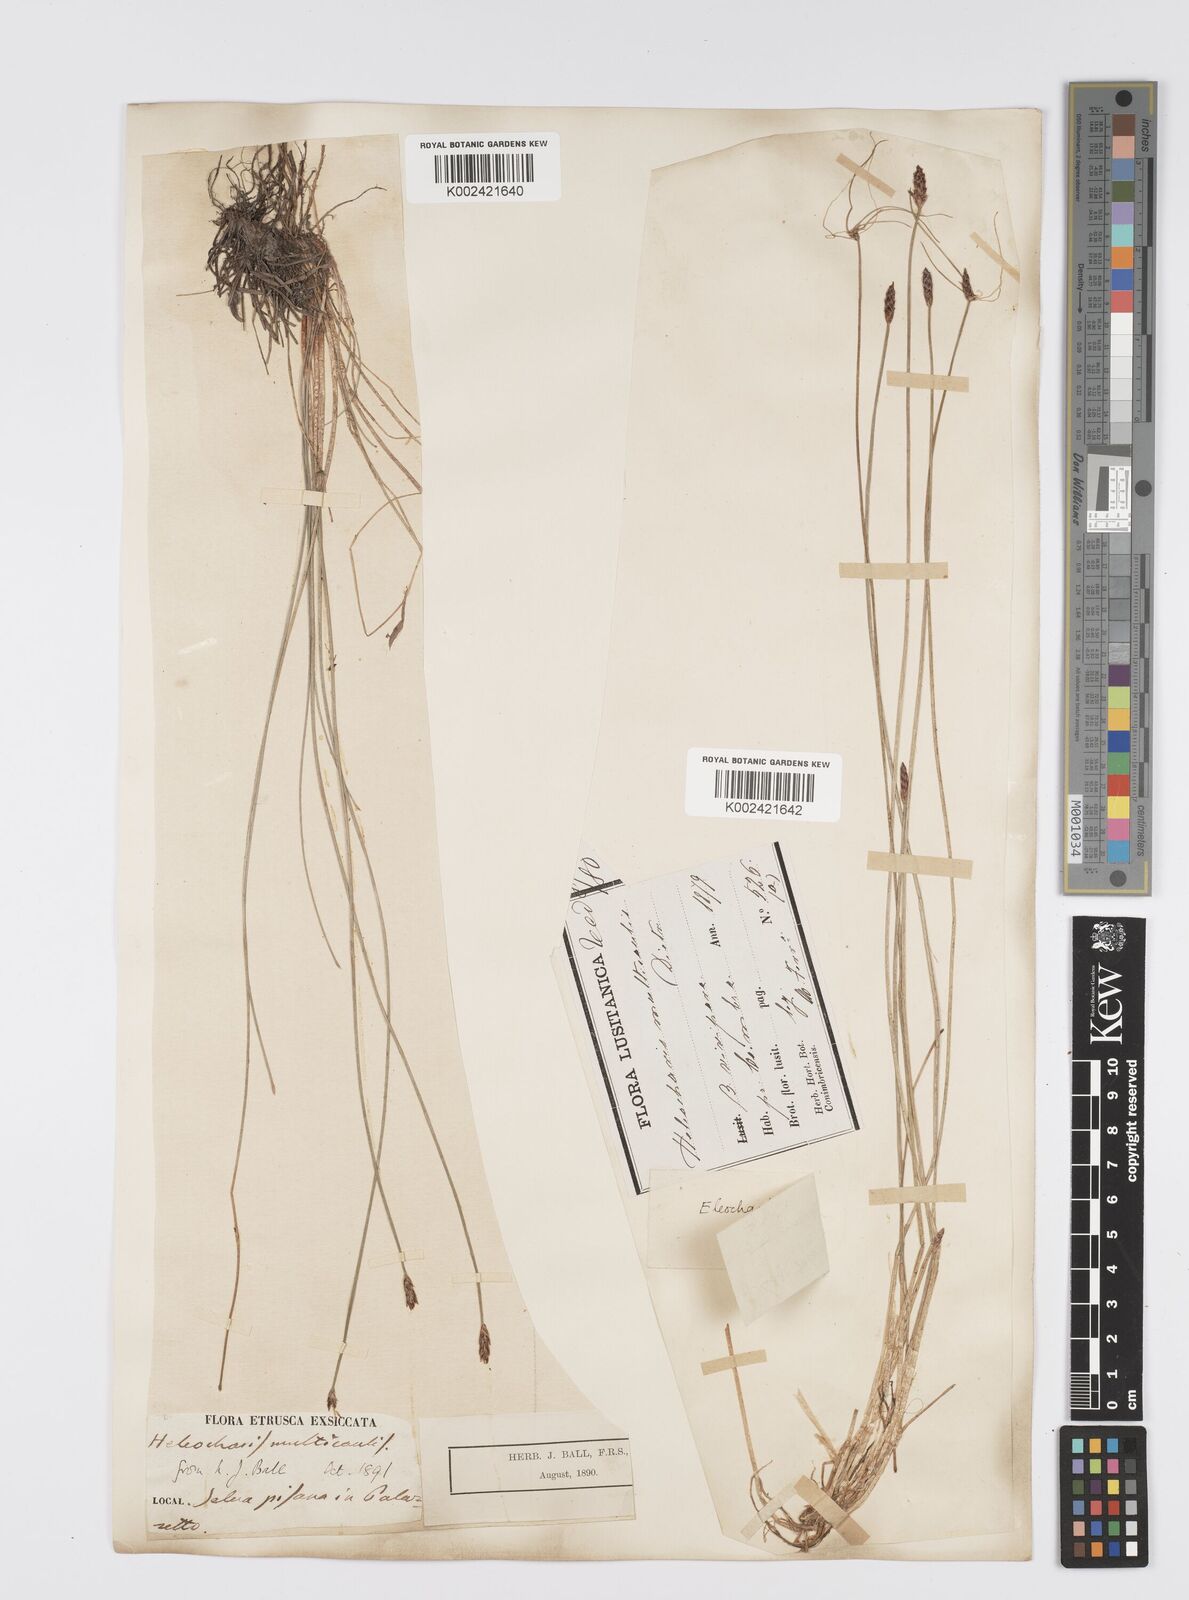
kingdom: Plantae
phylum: Tracheophyta
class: Liliopsida
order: Poales
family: Cyperaceae
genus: Eleocharis
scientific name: Eleocharis multicaulis
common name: Many-stalked spike-rush
